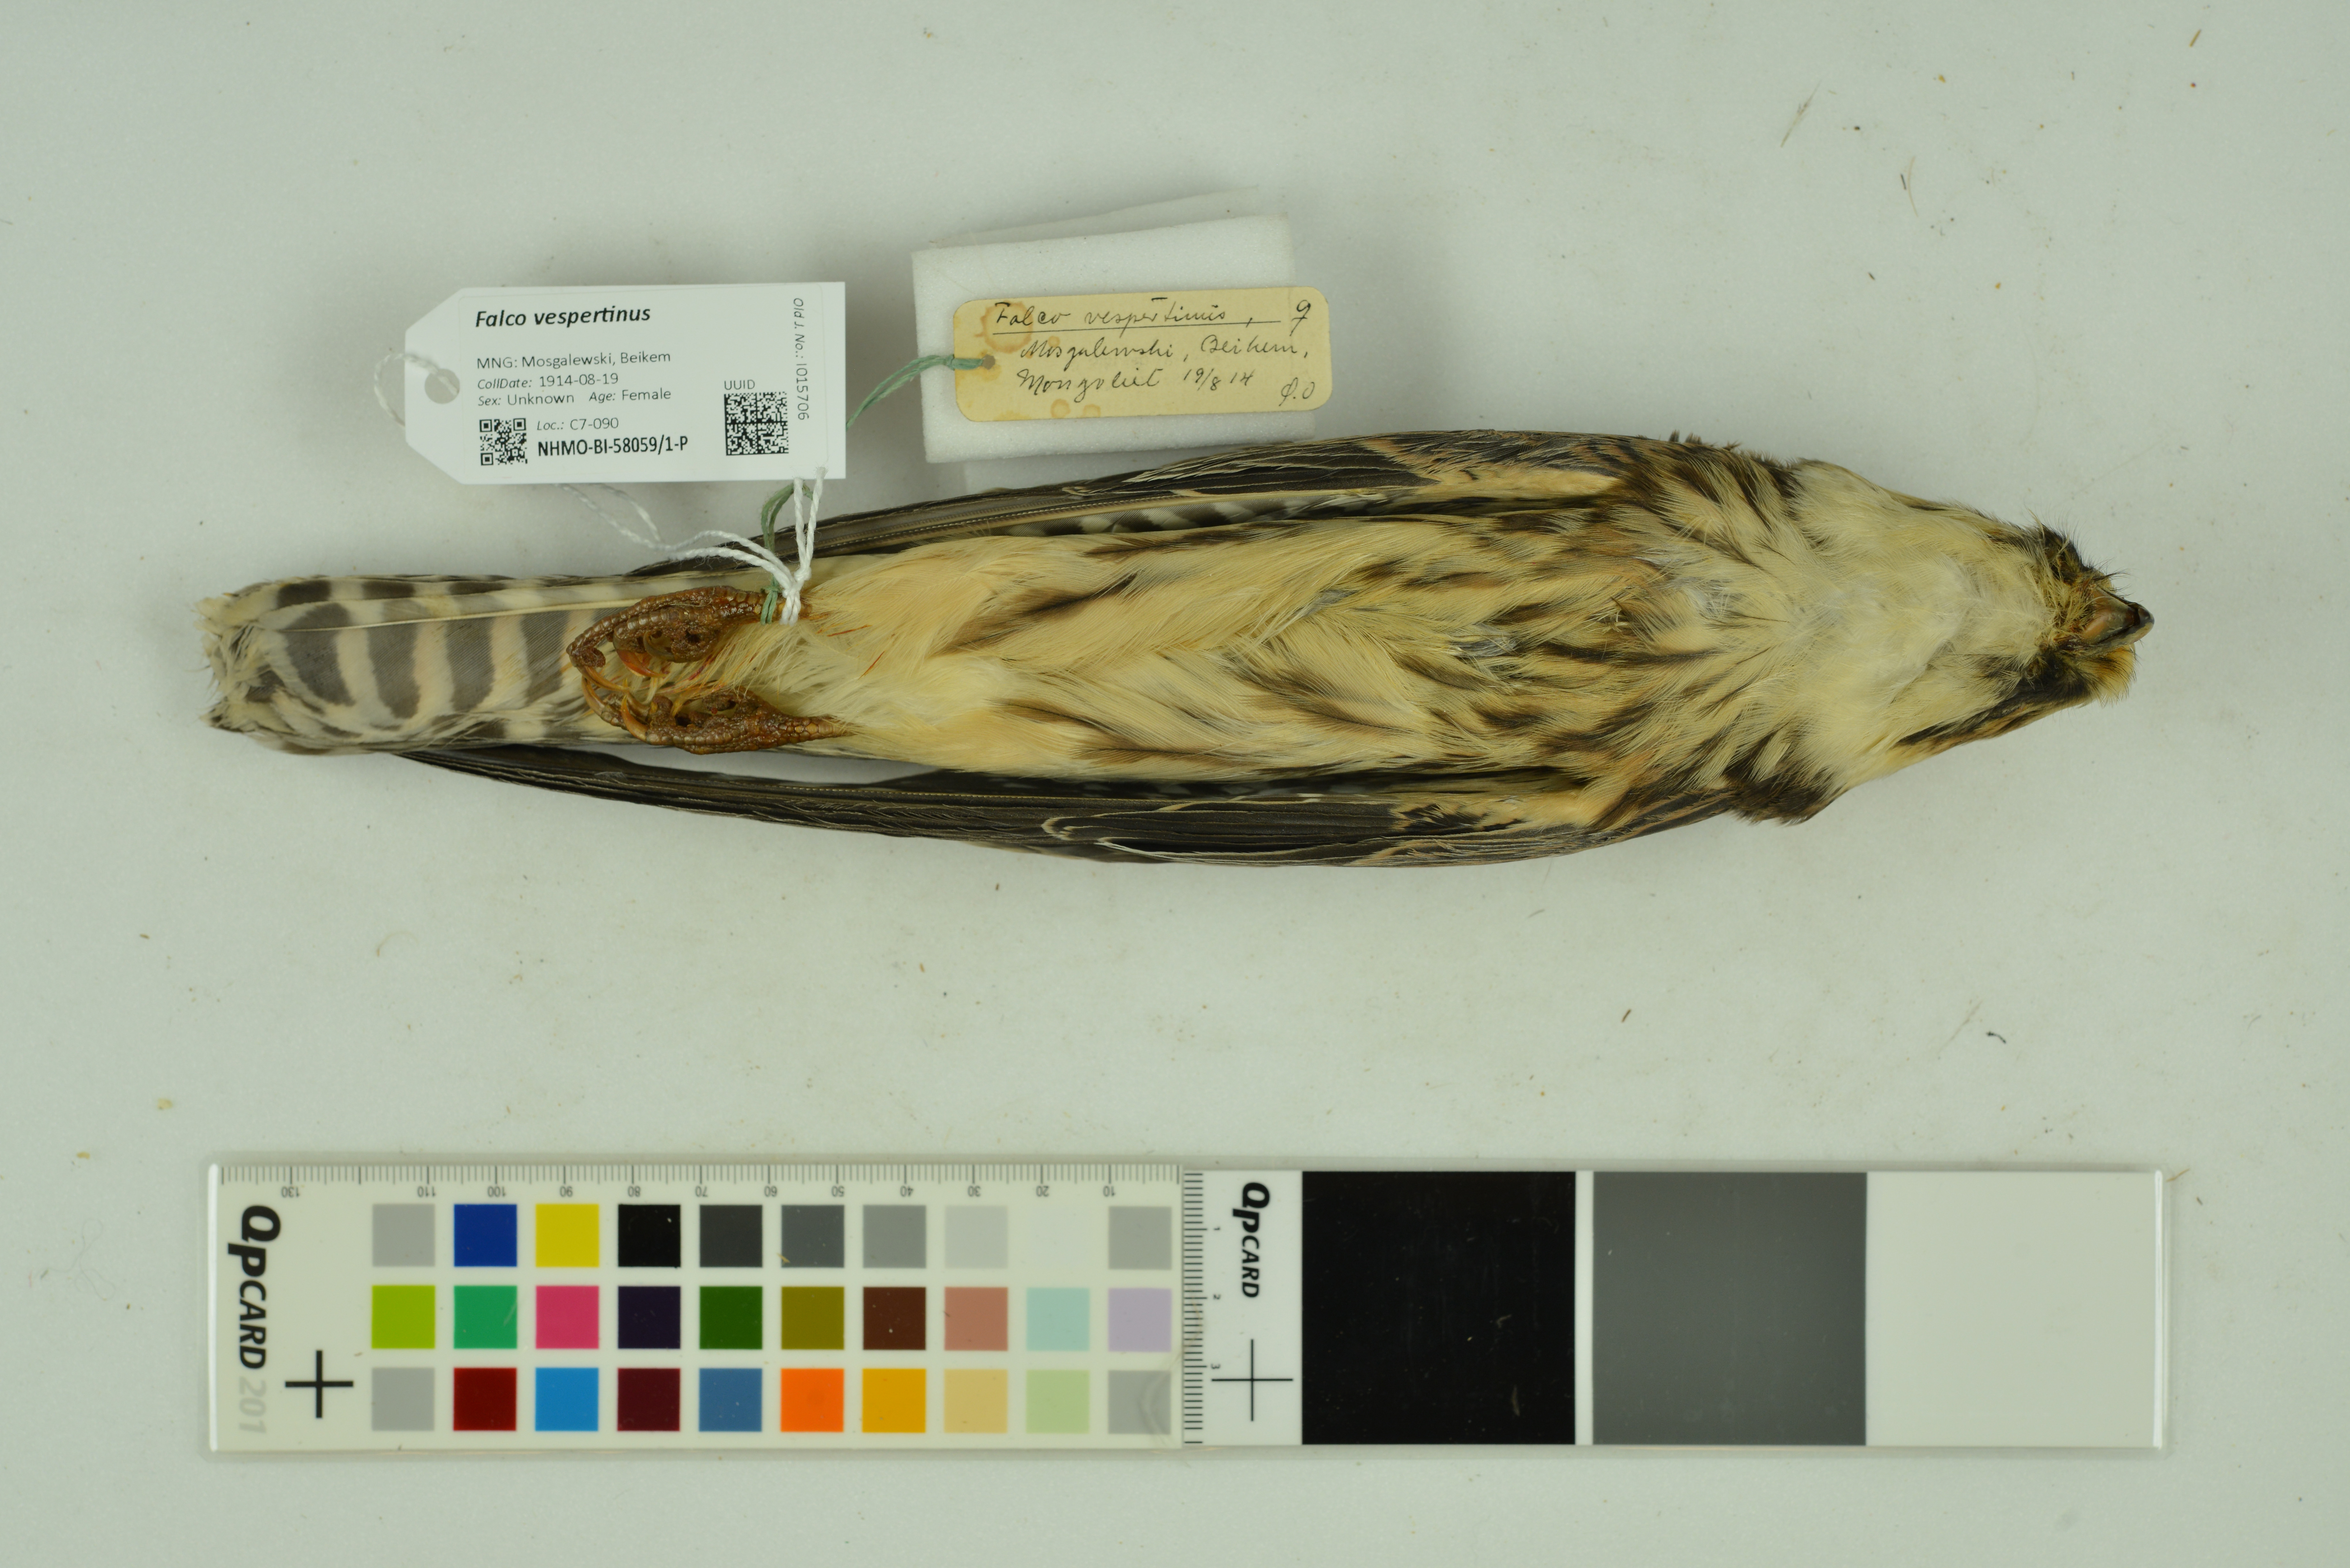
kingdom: Animalia
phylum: Chordata
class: Aves
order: Falconiformes
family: Falconidae
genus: Falco
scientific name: Falco vespertinus
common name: Red-footed falcon
